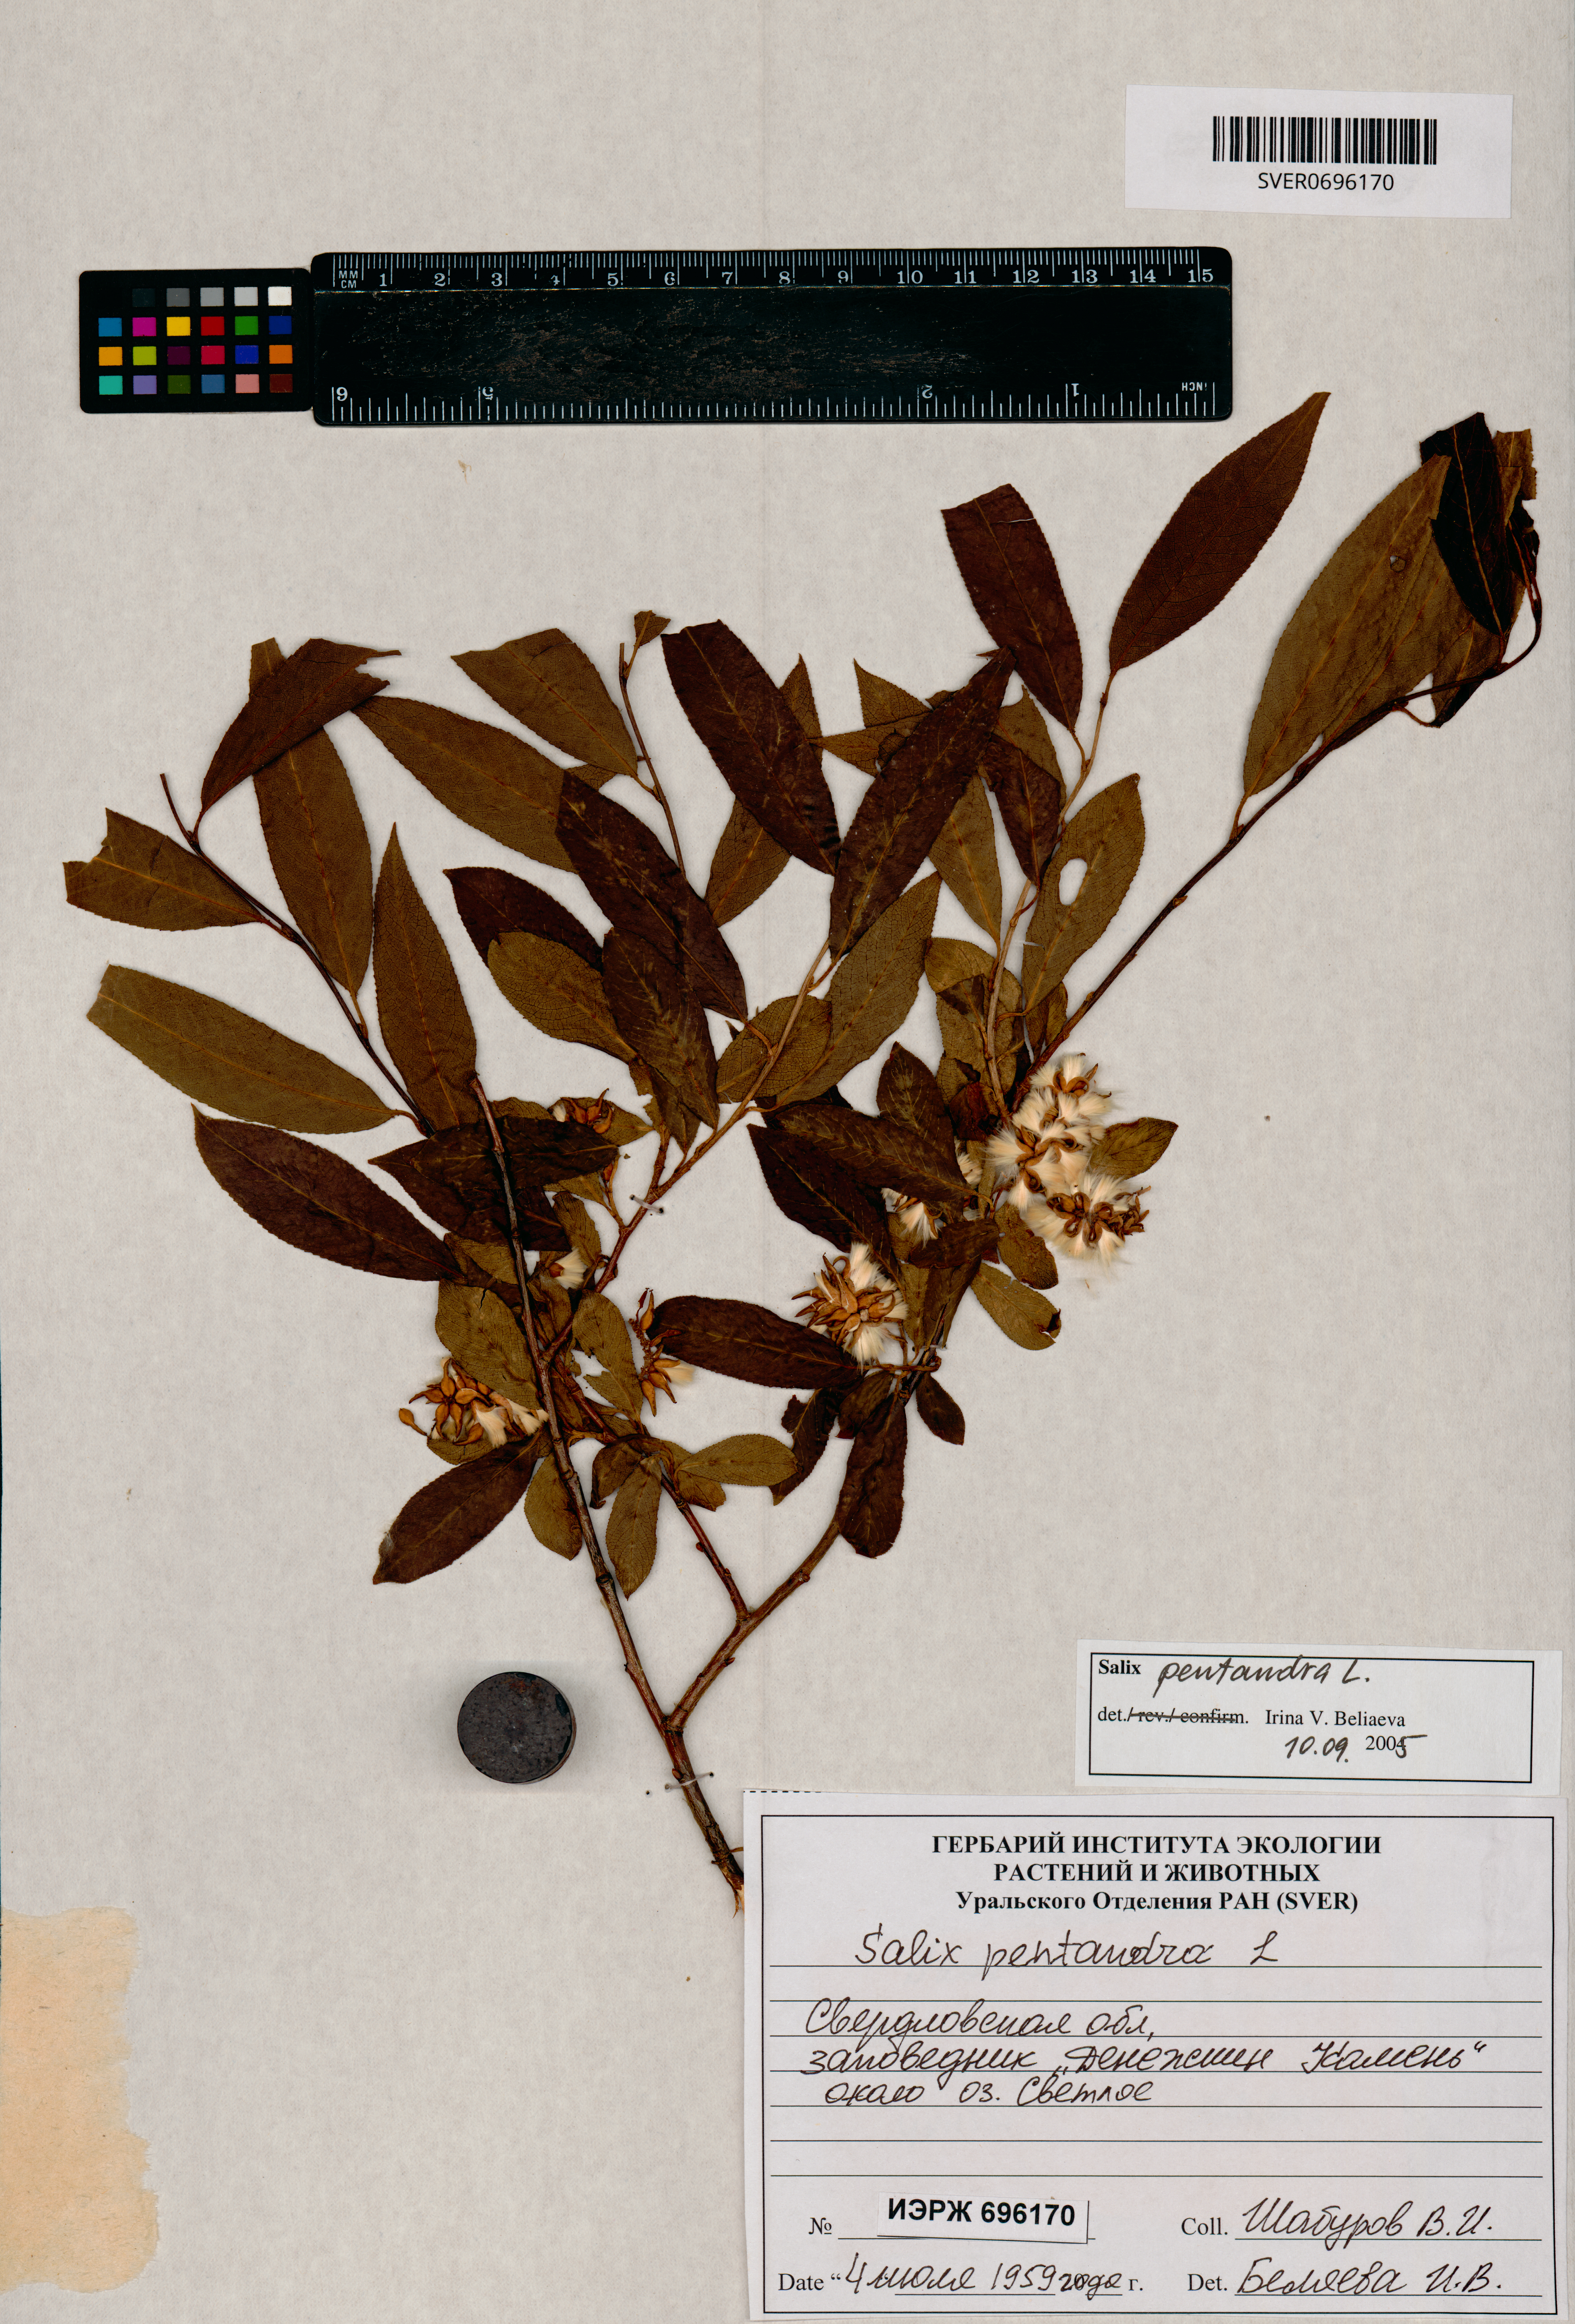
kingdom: Plantae
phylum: Tracheophyta
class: Magnoliopsida
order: Malpighiales
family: Salicaceae
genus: Salix
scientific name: Salix pentandra
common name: Bay willow
